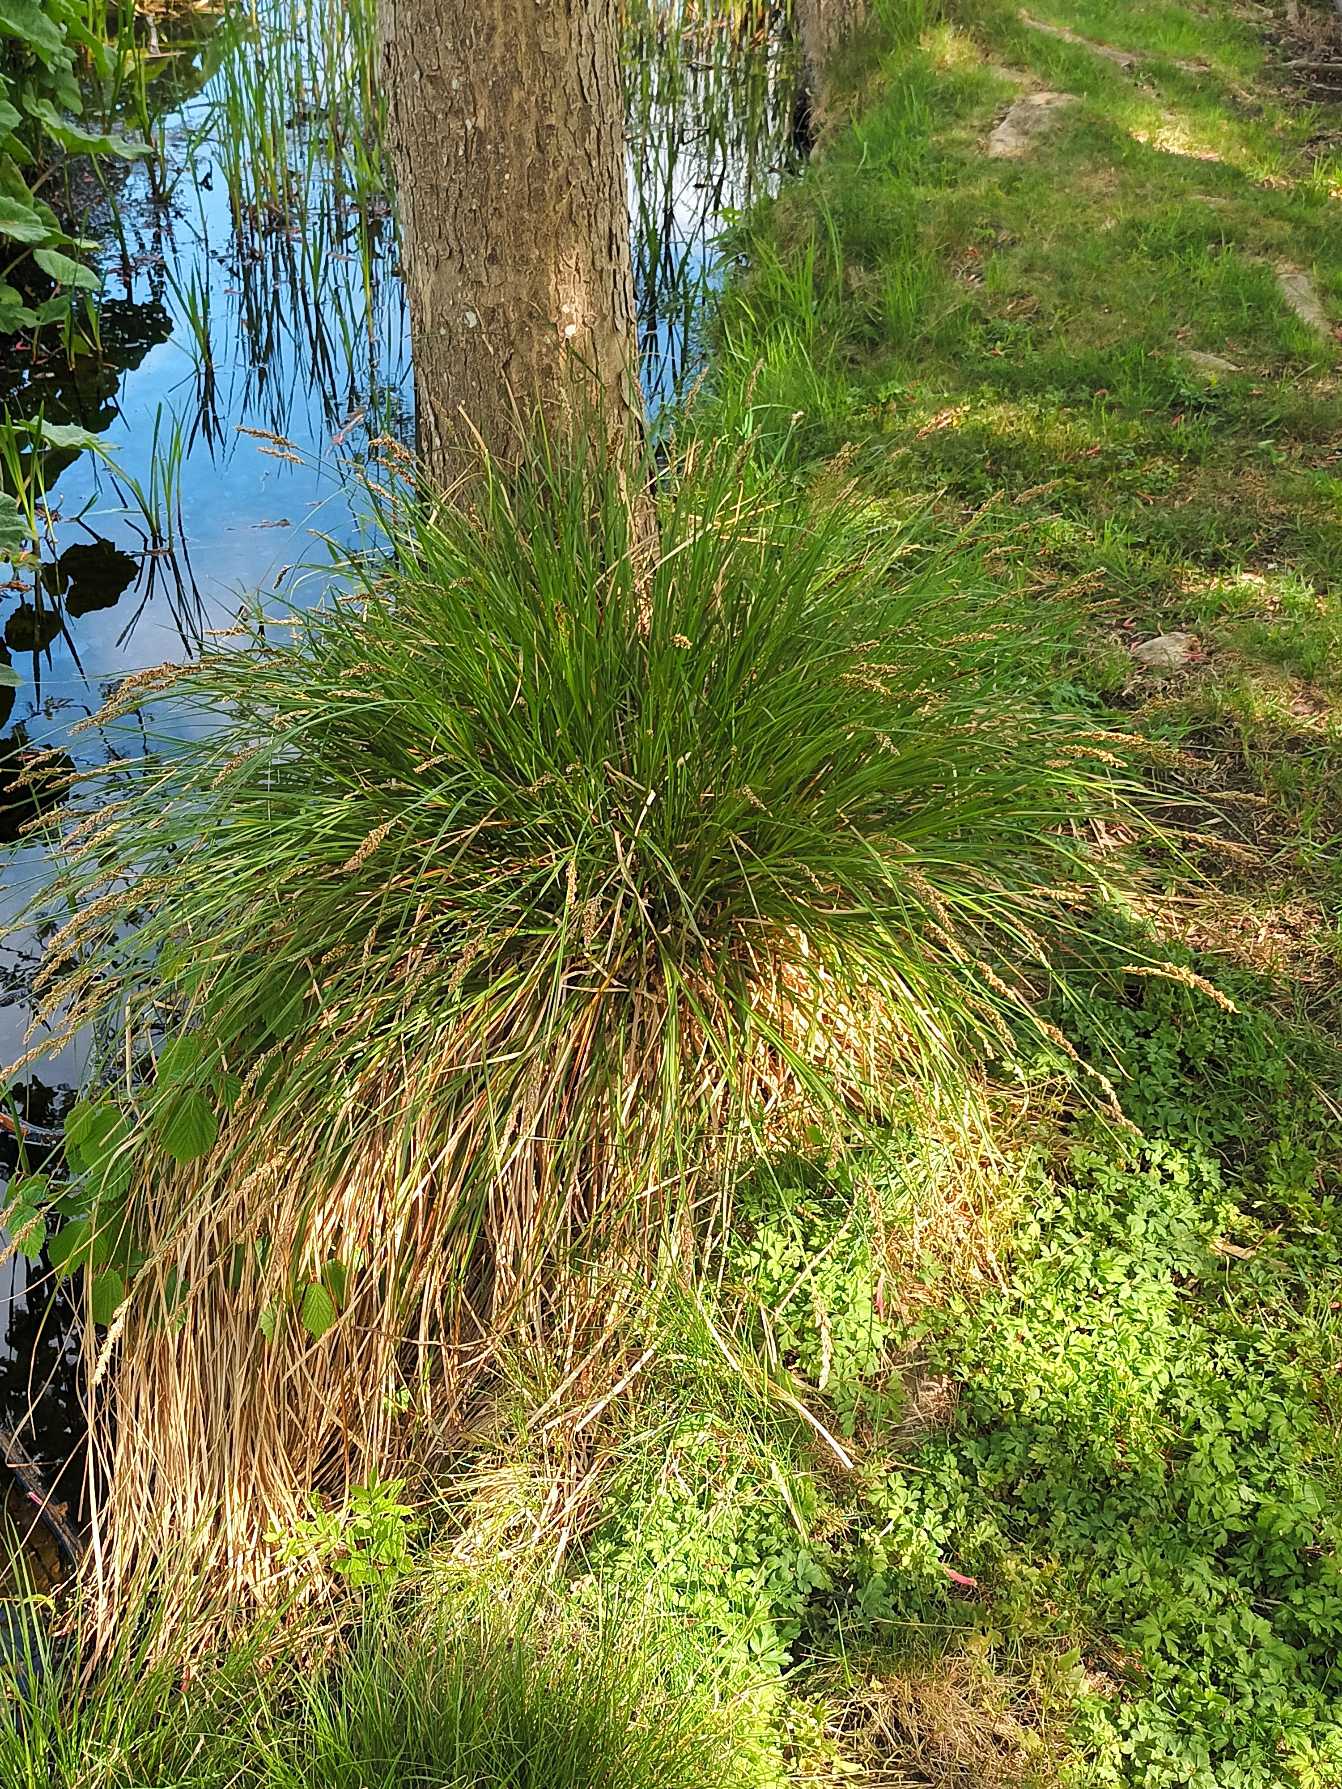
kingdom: Plantae
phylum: Tracheophyta
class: Liliopsida
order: Poales
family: Cyperaceae
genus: Carex
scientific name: Carex paniculata
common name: Top-star
